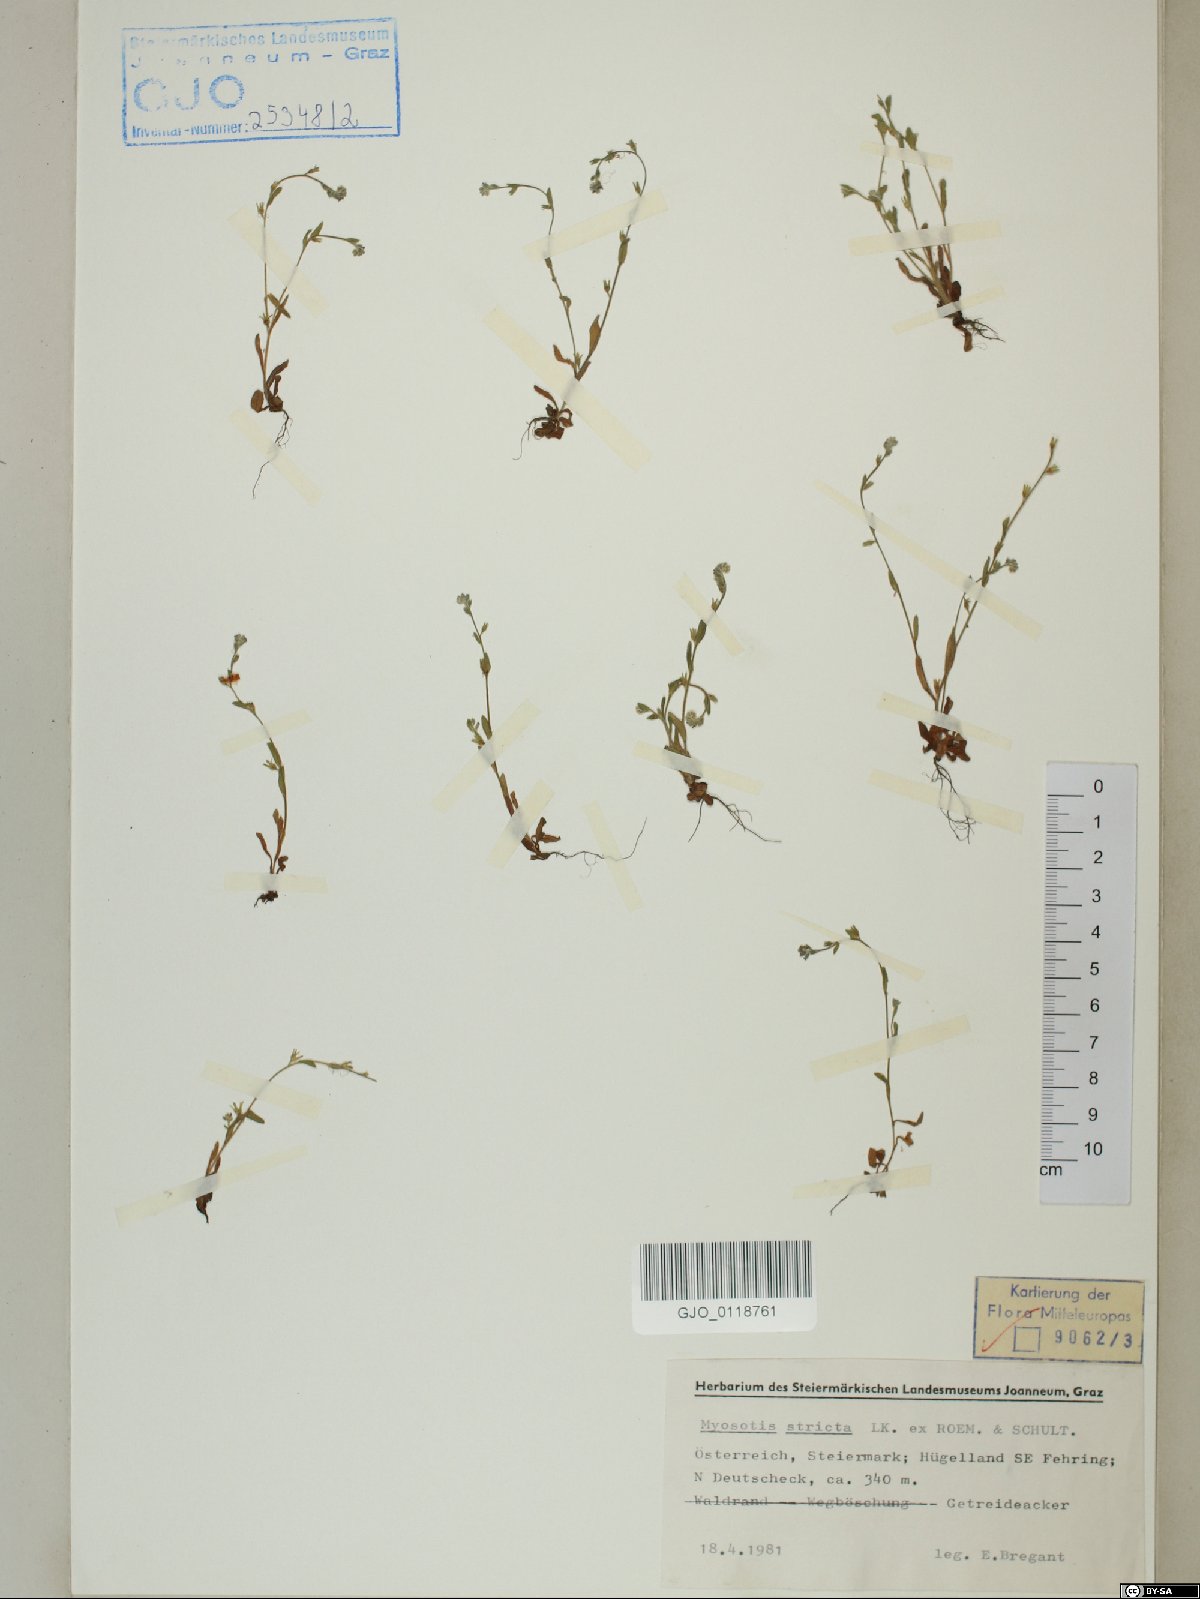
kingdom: Plantae
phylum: Tracheophyta
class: Magnoliopsida
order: Boraginales
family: Boraginaceae
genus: Myosotis
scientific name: Myosotis stricta
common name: Strict forget-me-not
